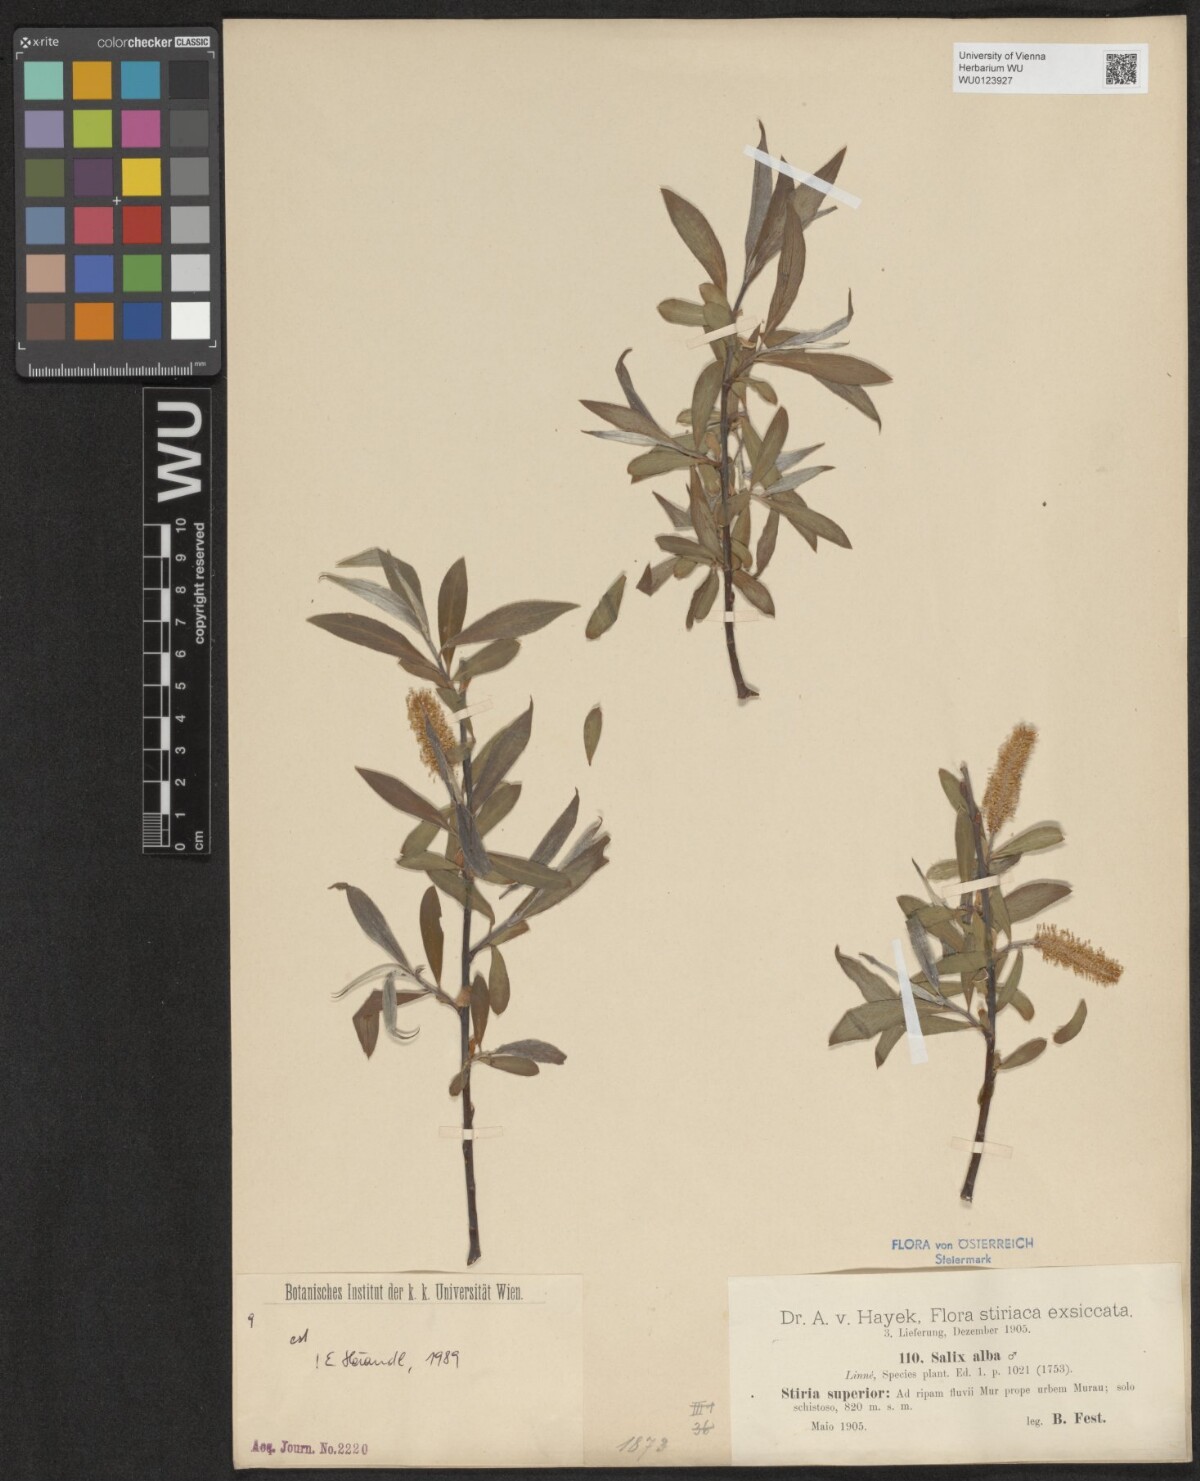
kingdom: Plantae
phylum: Tracheophyta
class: Magnoliopsida
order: Malpighiales
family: Salicaceae
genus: Salix
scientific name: Salix alba
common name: White willow
